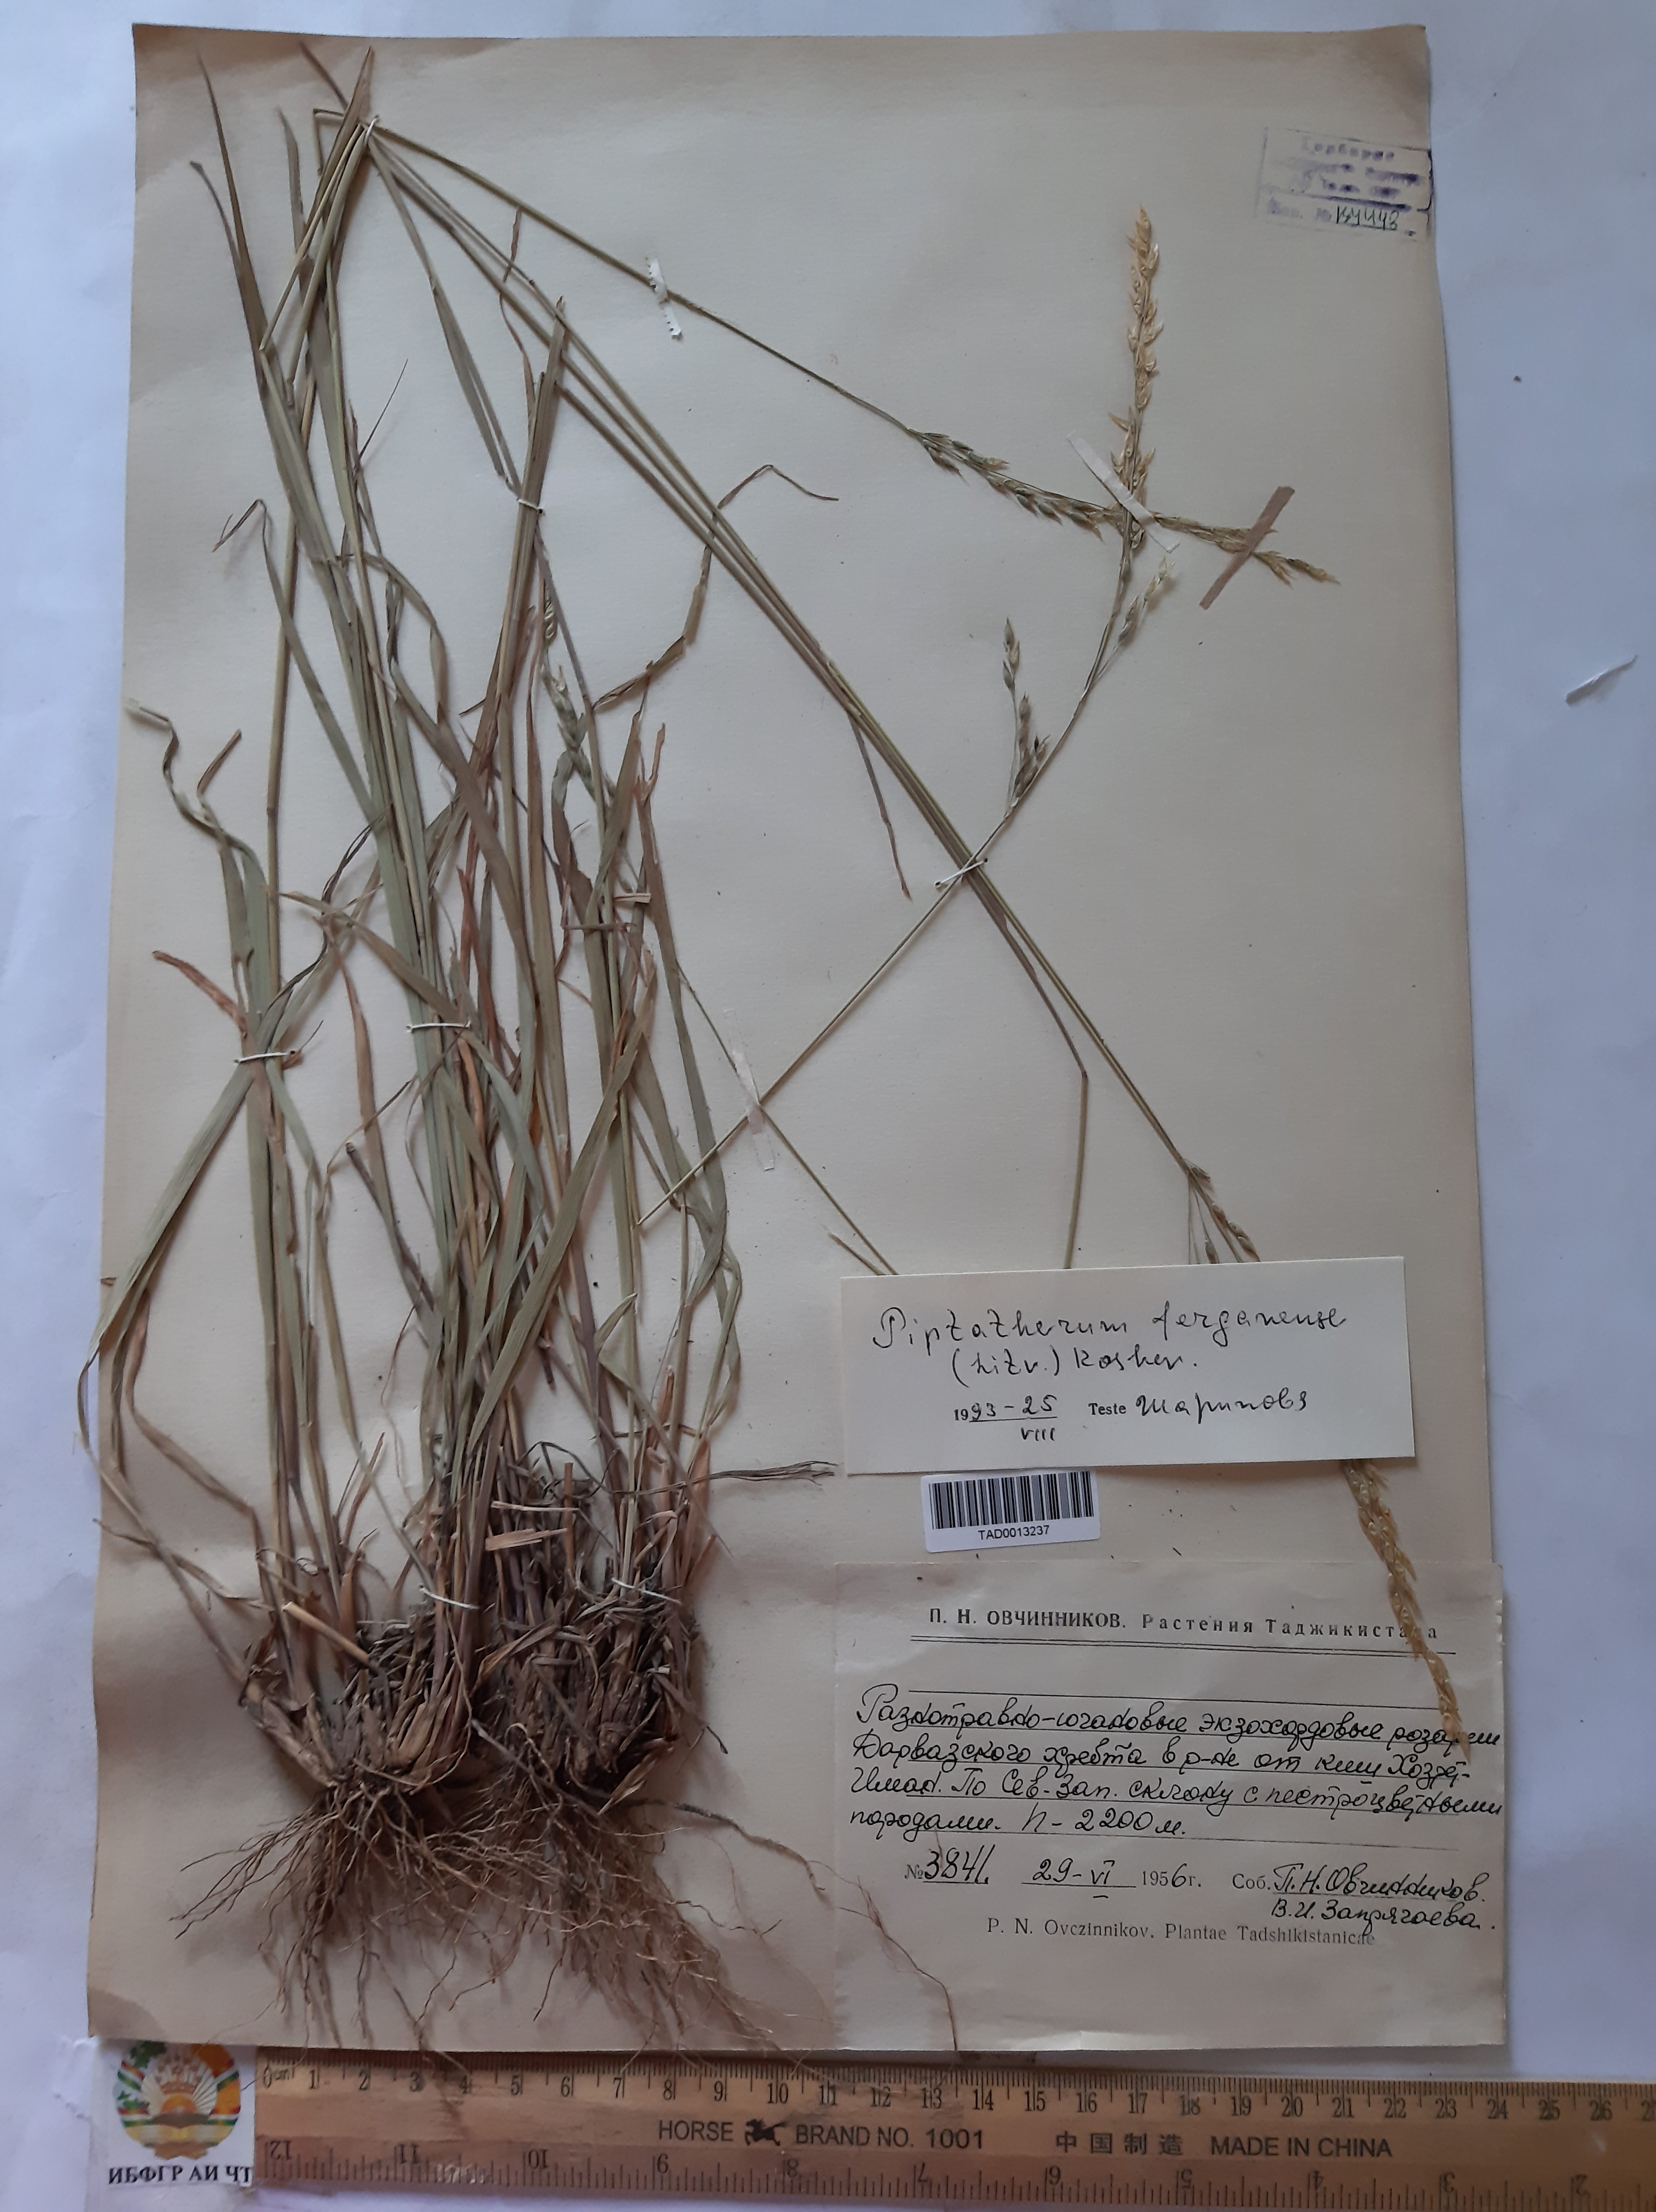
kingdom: Plantae
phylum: Tracheophyta
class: Liliopsida
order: Poales
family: Poaceae
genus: Piptatherum
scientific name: Piptatherum ferganense
